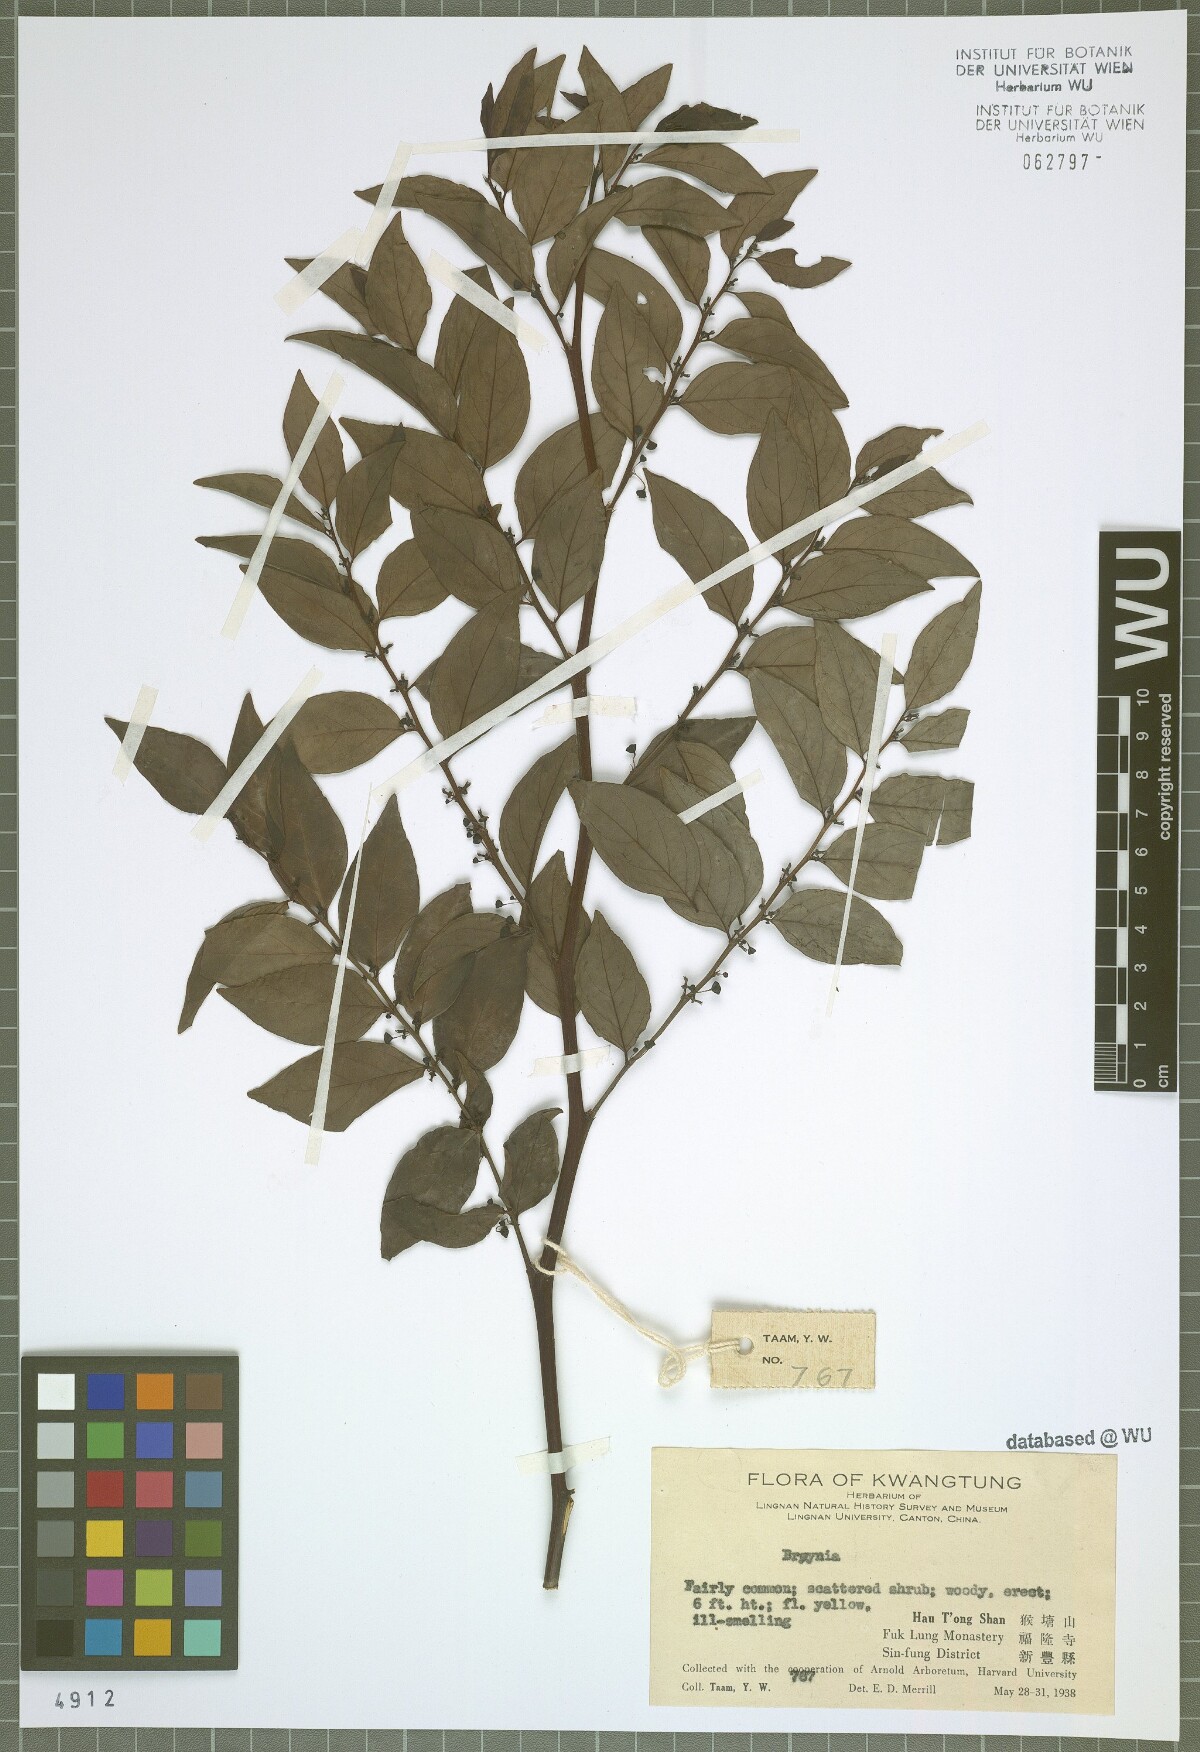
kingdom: Plantae
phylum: Tracheophyta
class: Magnoliopsida
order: Malpighiales
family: Phyllanthaceae
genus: Breynia
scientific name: Breynia
